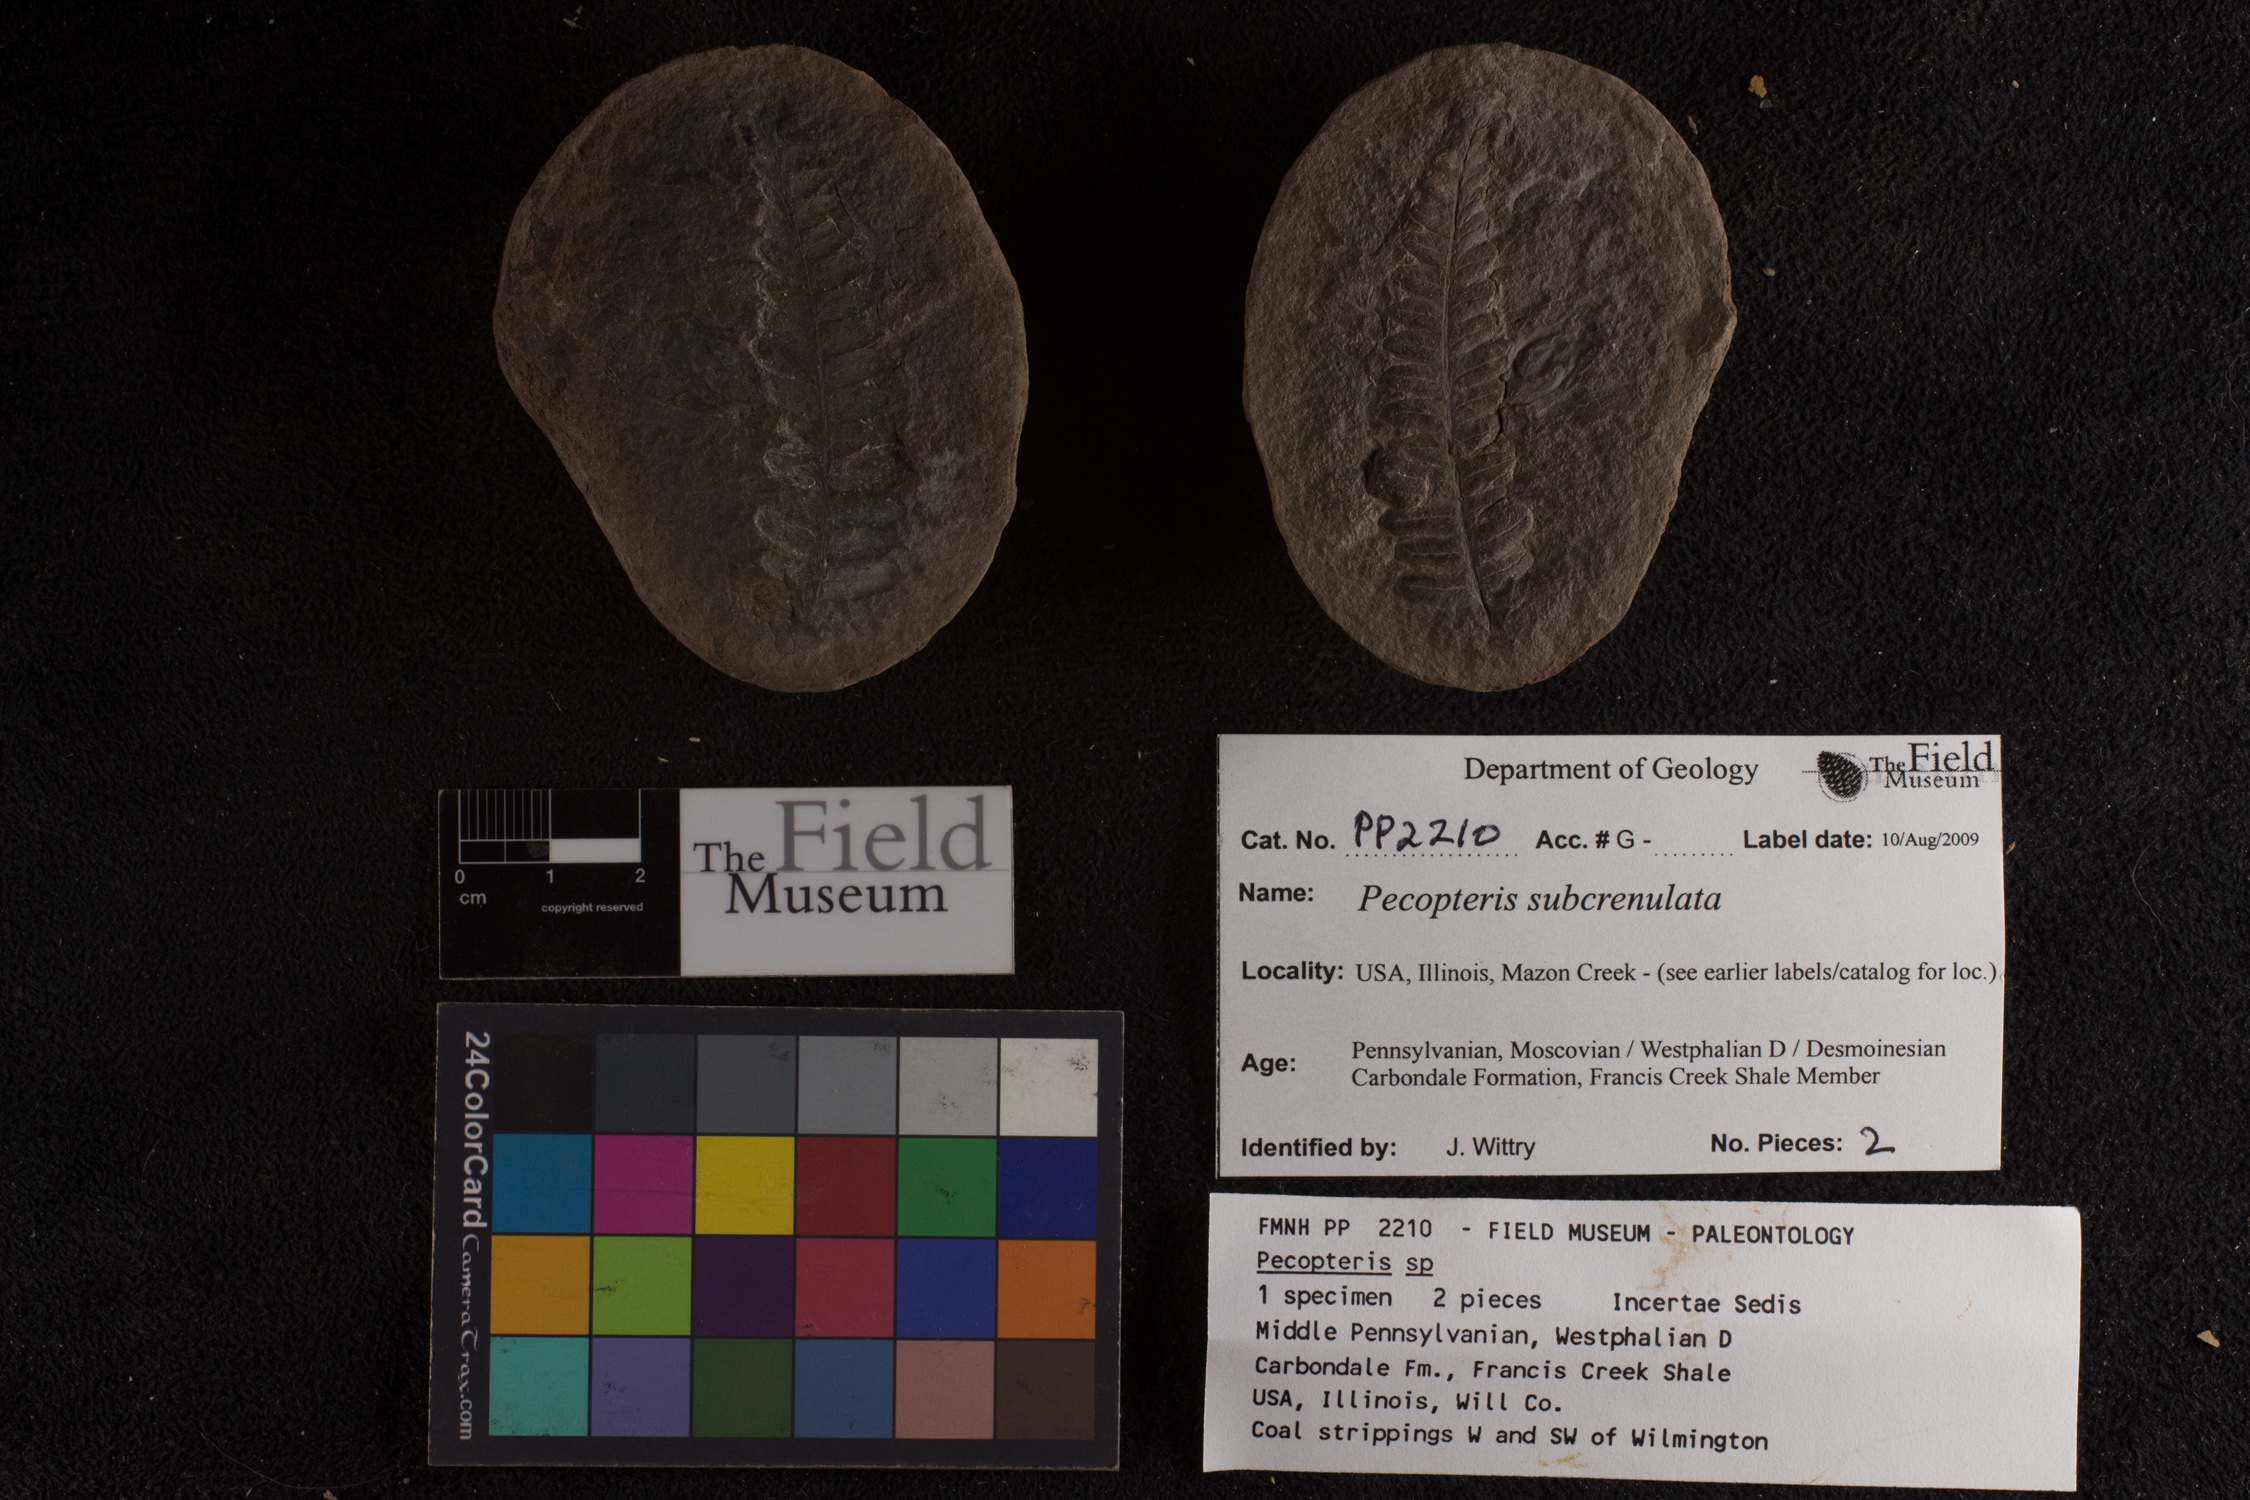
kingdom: Plantae
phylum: Tracheophyta
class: Polypodiopsida
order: Marattiales
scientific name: Marattiales
